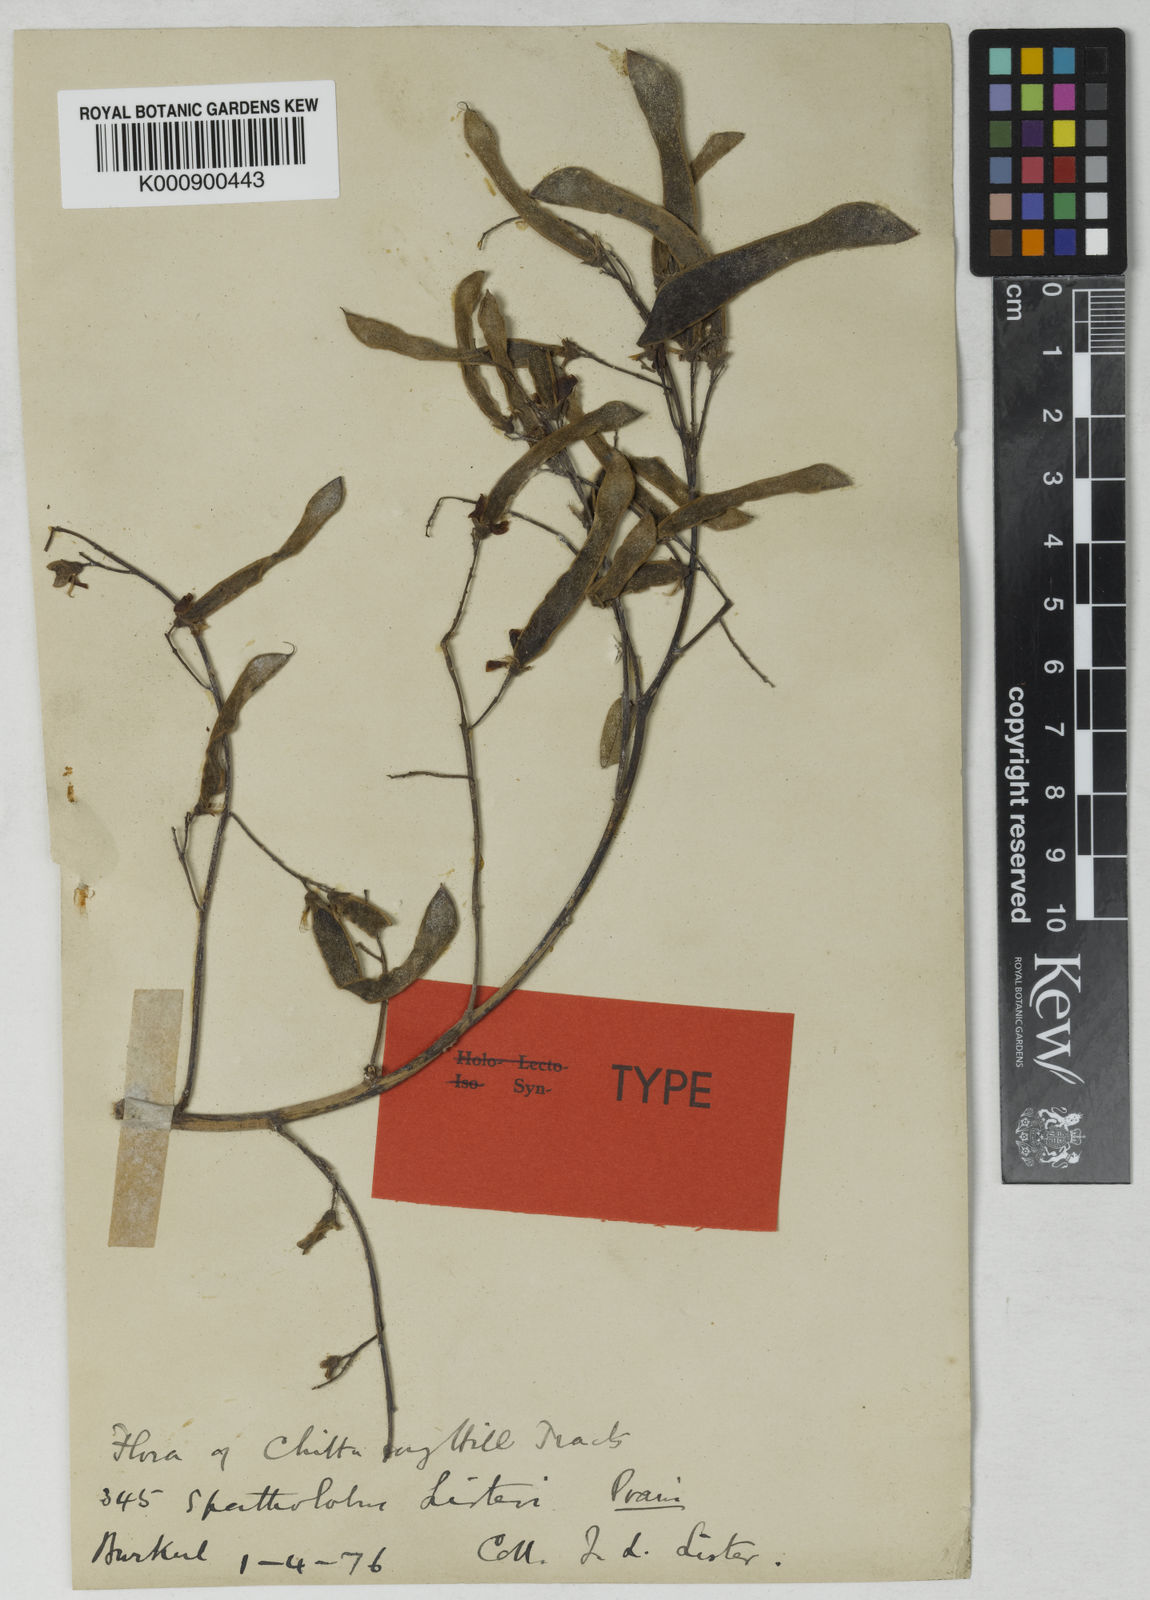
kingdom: Plantae
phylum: Tracheophyta
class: Magnoliopsida
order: Fabales
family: Fabaceae
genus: Spatholobus
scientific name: Spatholobus acuminatus
